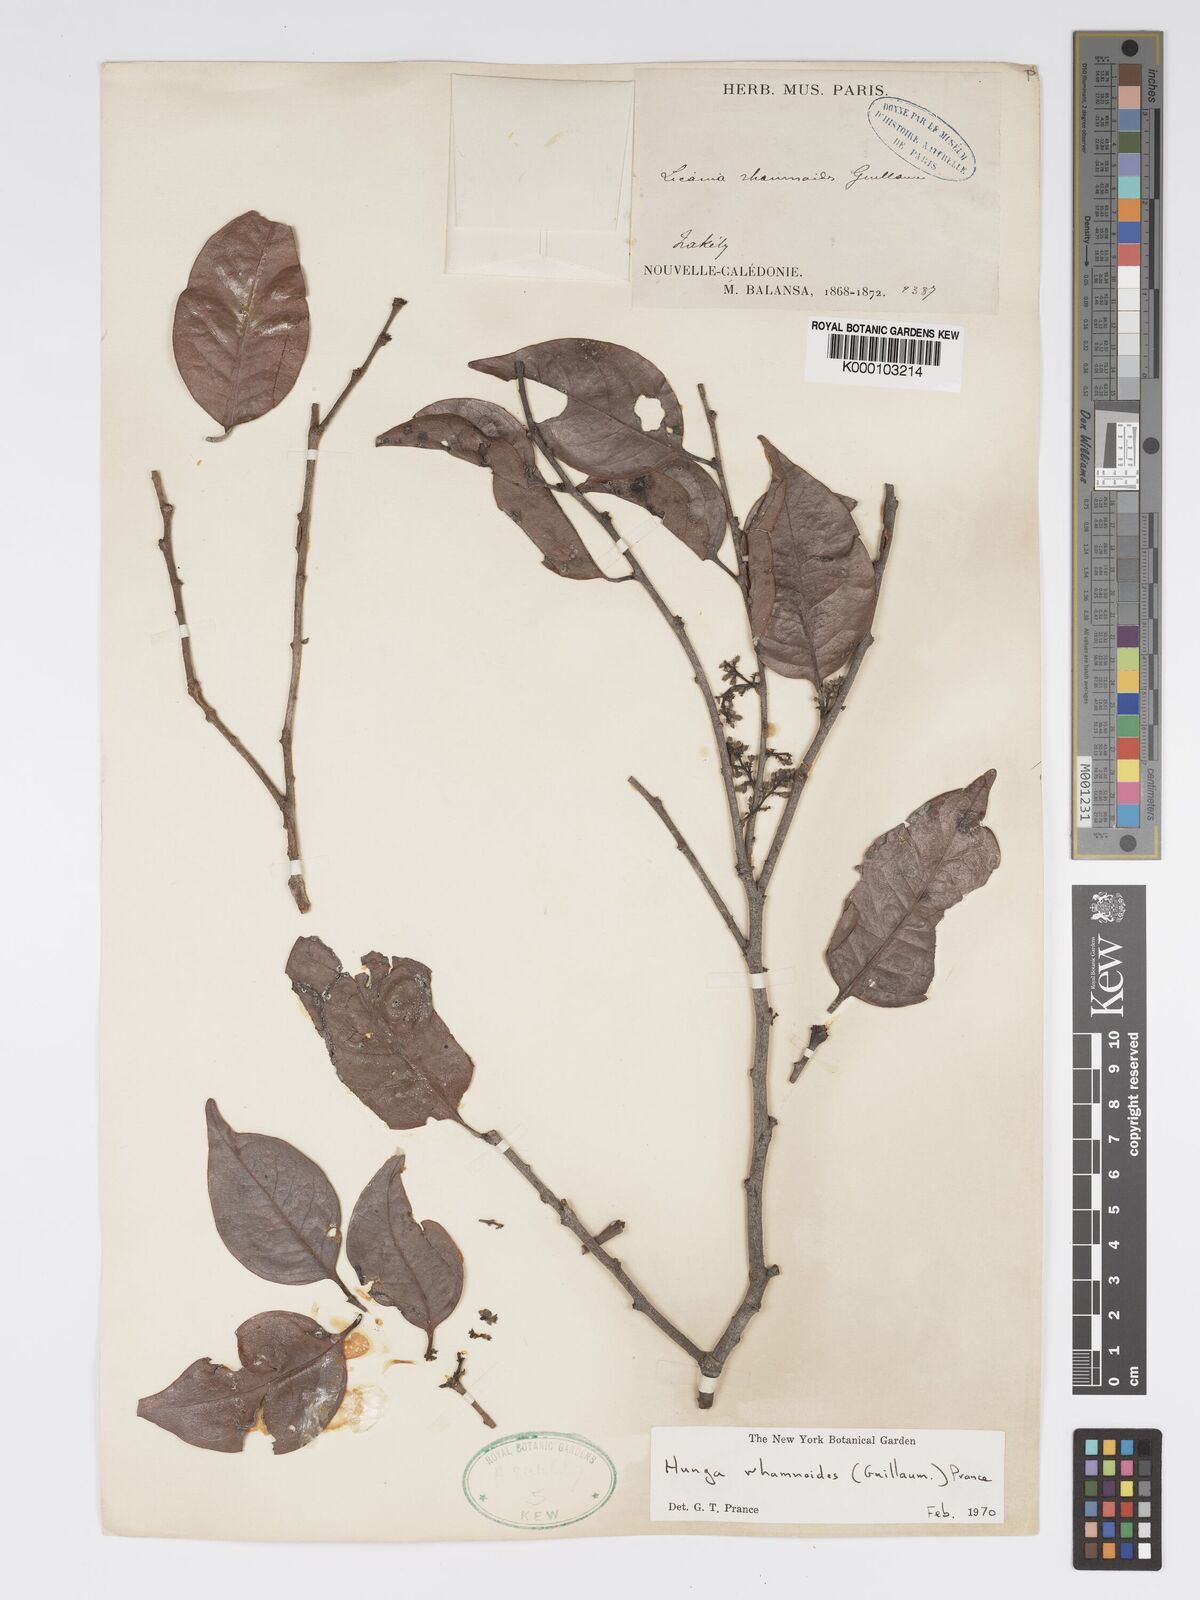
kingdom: Plantae
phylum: Tracheophyta
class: Magnoliopsida
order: Malpighiales
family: Chrysobalanaceae
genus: Hunga
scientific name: Hunga rhamnoides
